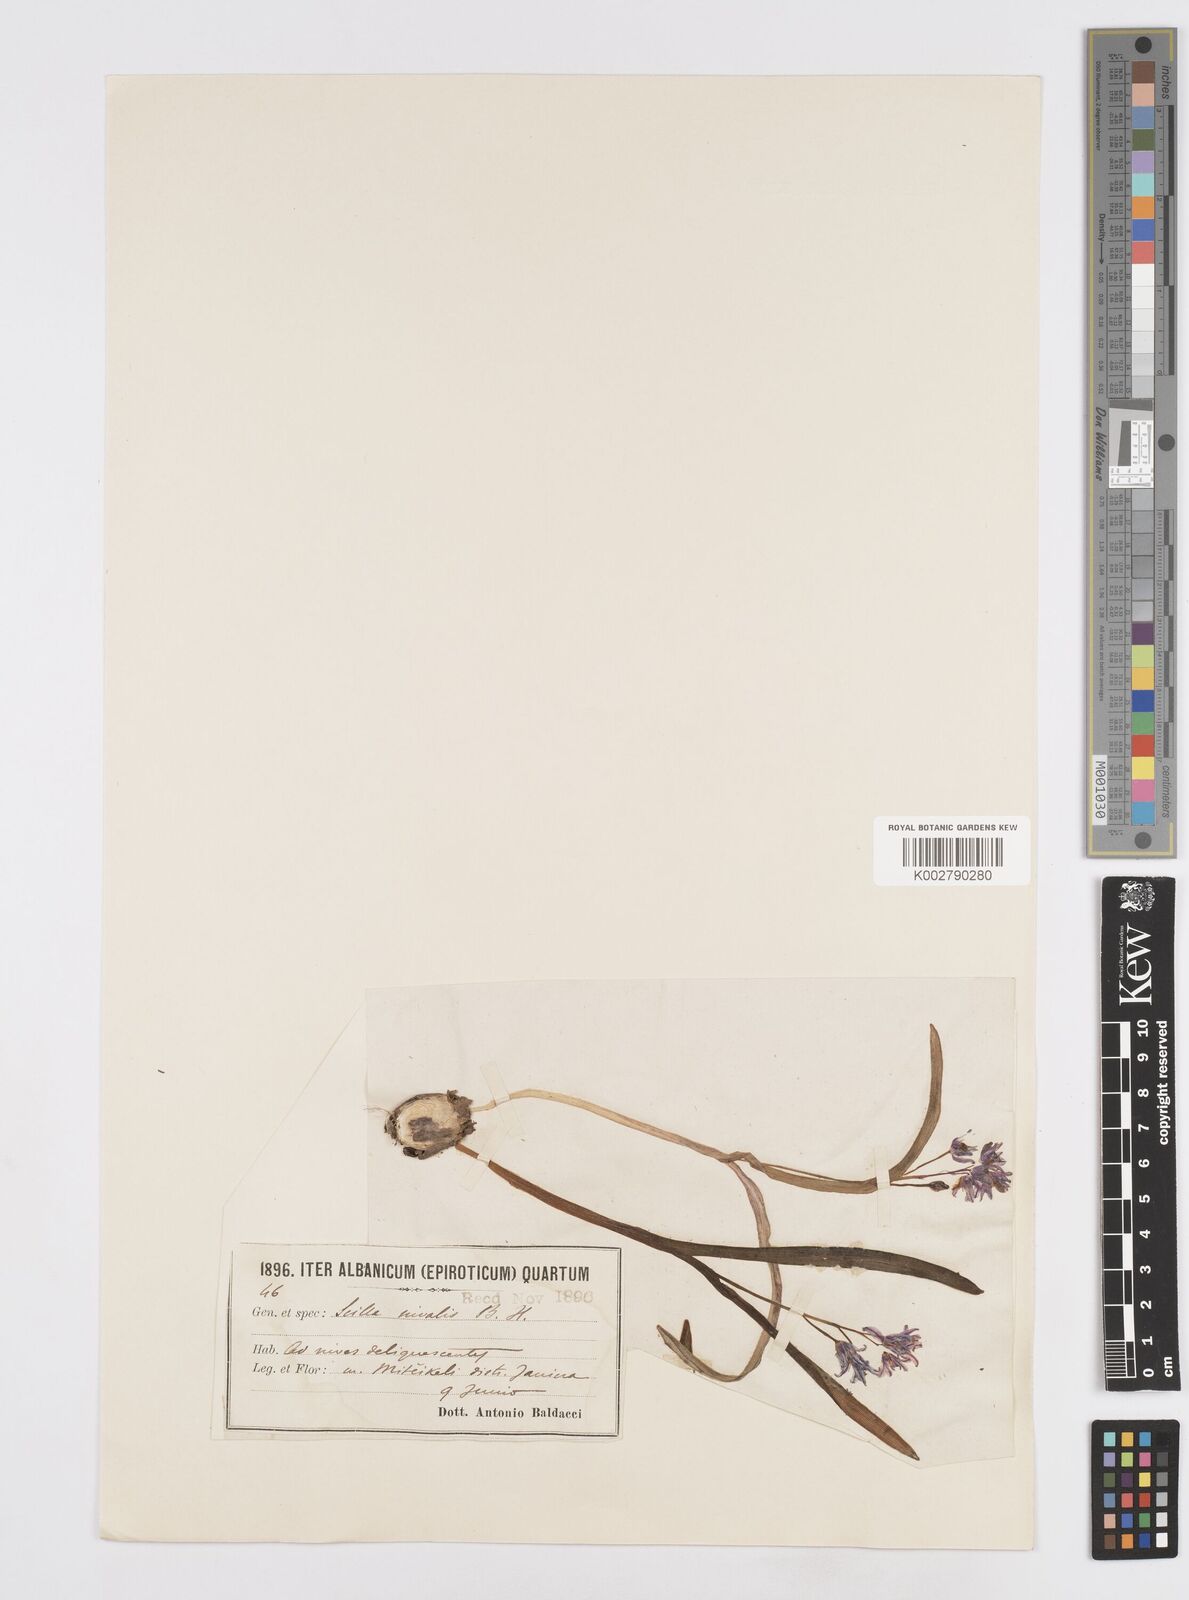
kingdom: Plantae
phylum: Tracheophyta
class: Liliopsida
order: Asparagales
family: Asparagaceae
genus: Scilla
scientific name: Scilla nivalis
